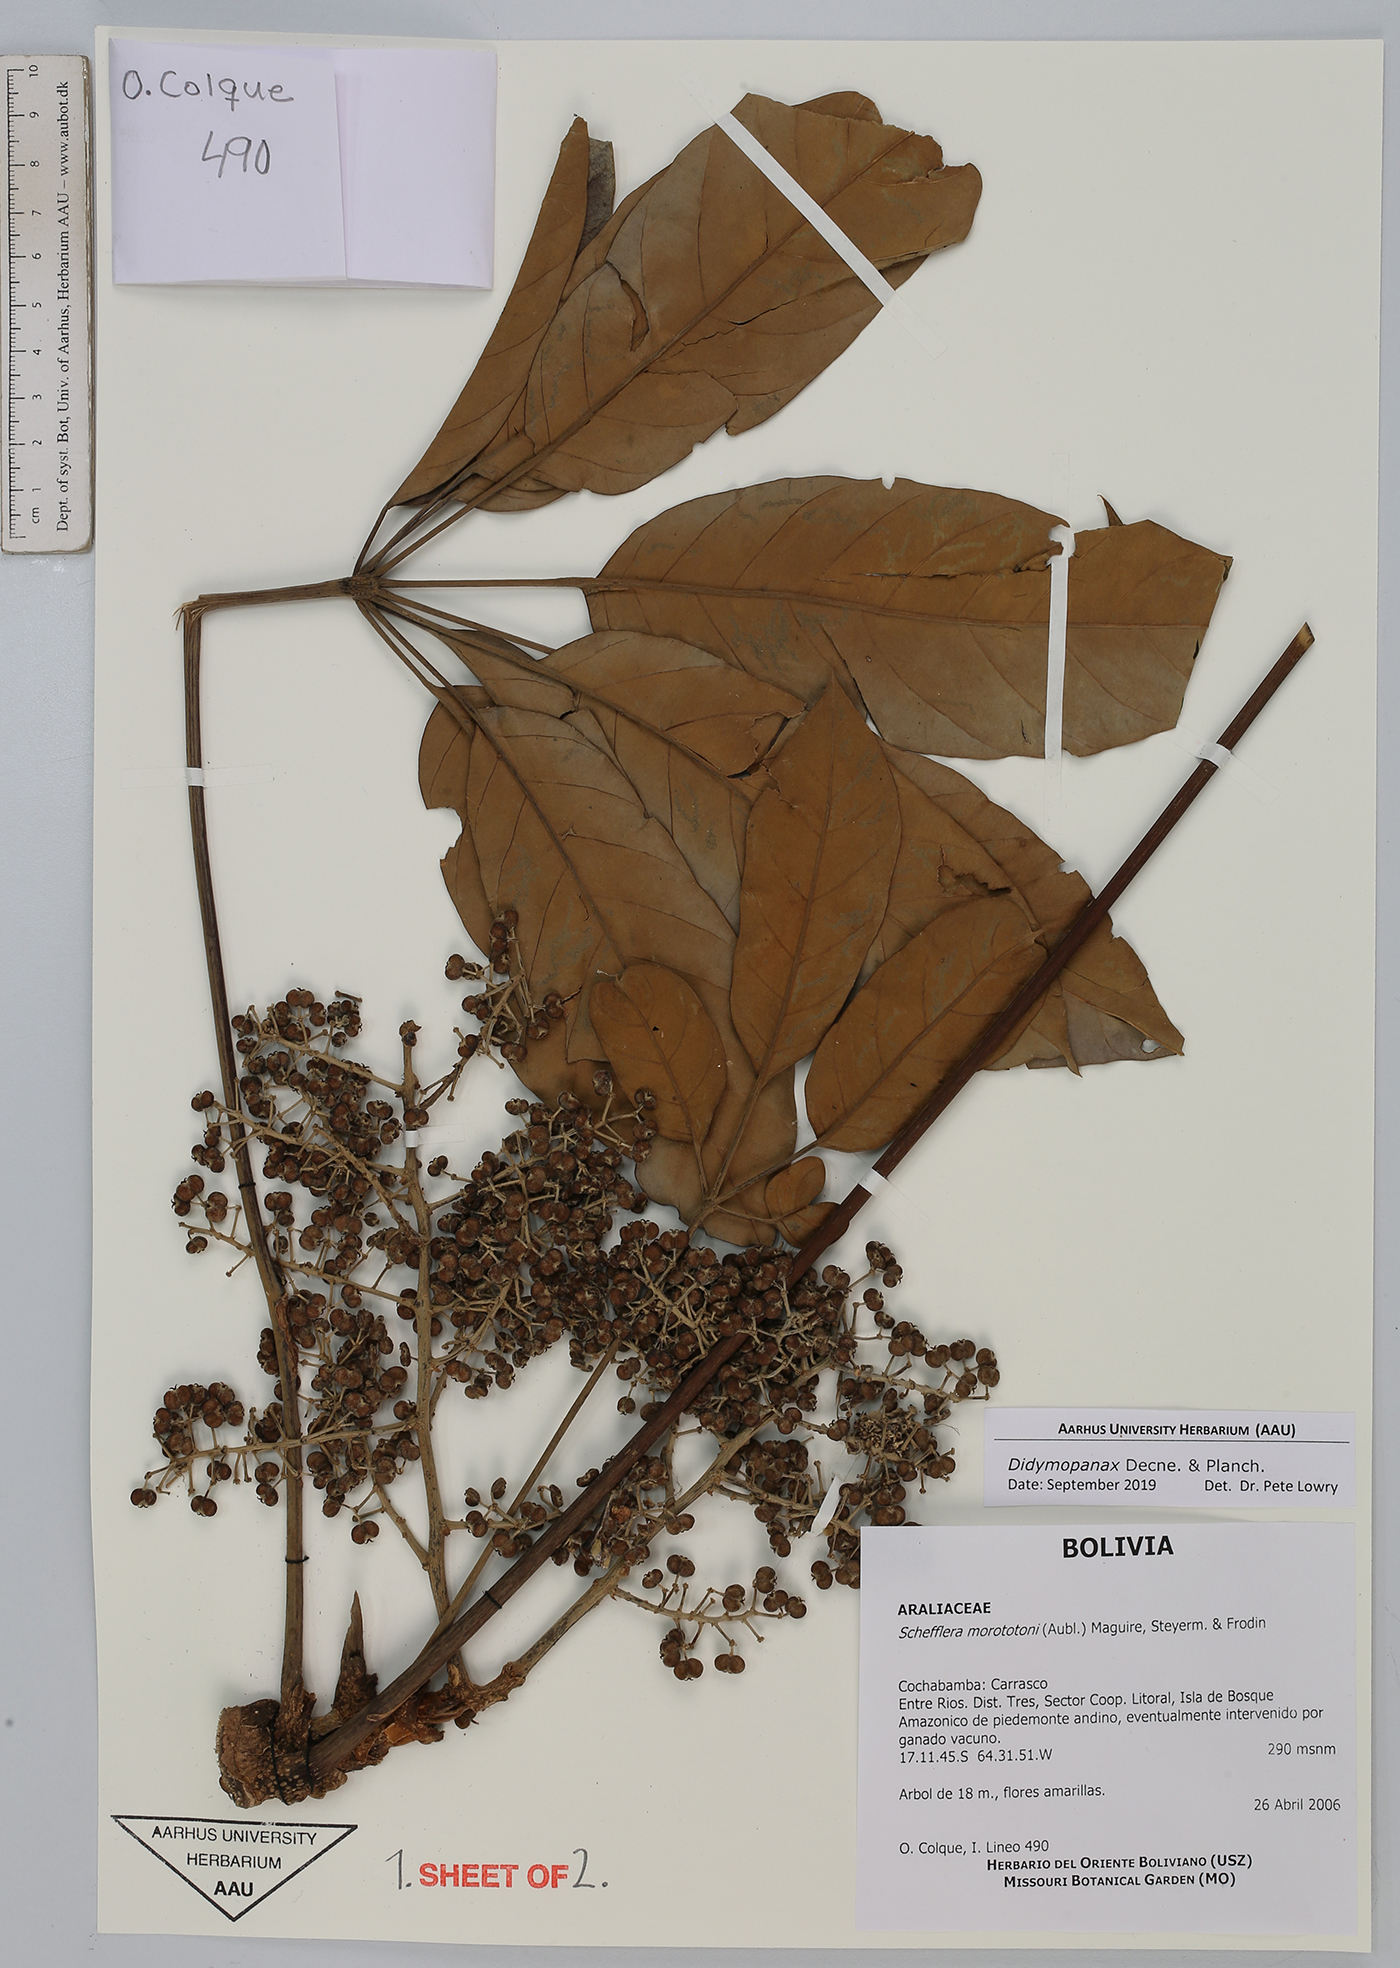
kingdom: Plantae
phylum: Tracheophyta
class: Magnoliopsida
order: Apiales
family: Araliaceae
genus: Didymopanax
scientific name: Didymopanax
